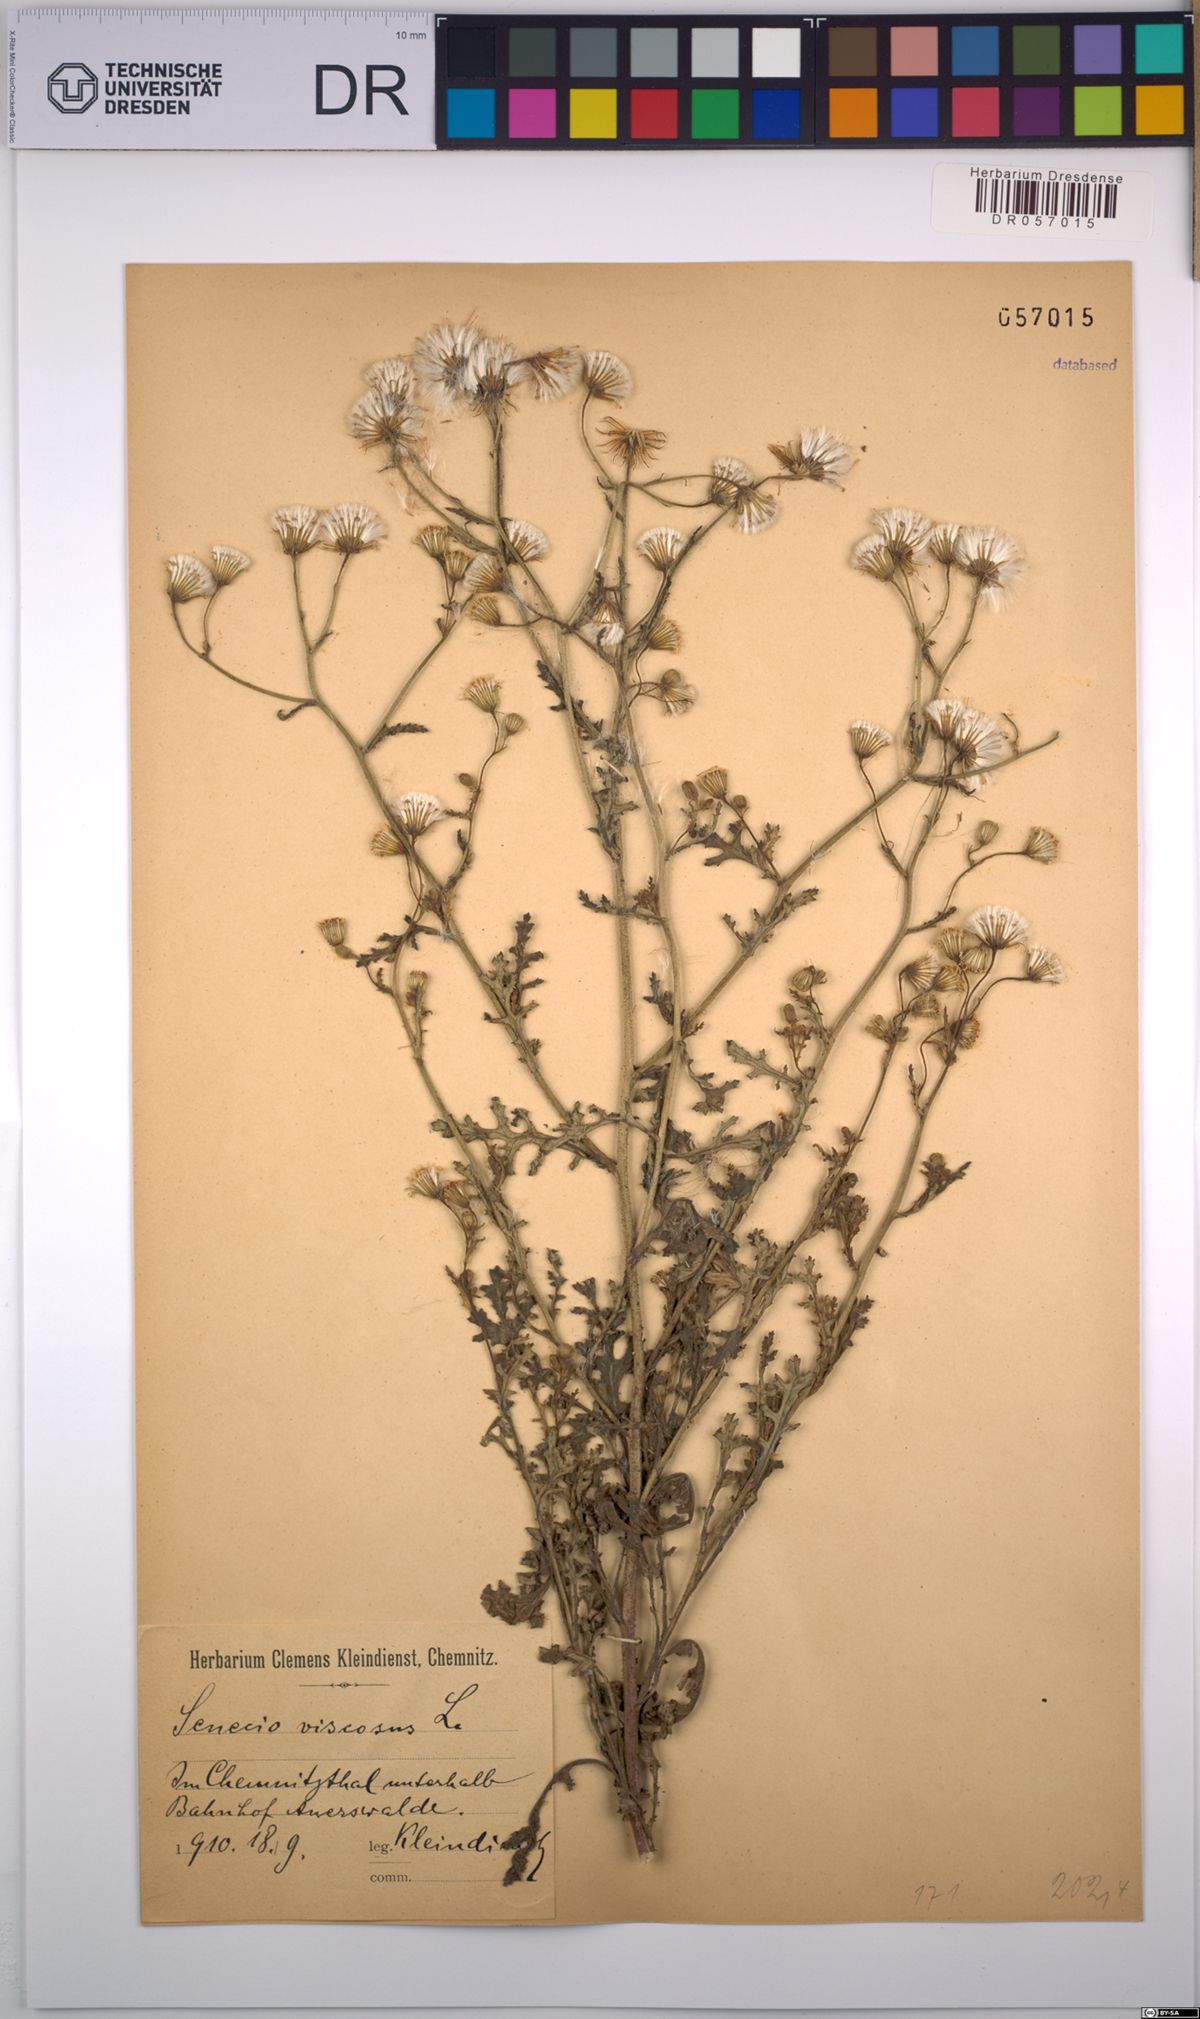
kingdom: Plantae
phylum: Tracheophyta
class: Magnoliopsida
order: Asterales
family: Asteraceae
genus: Senecio
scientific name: Senecio viscosus
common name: Sticky groundsel
